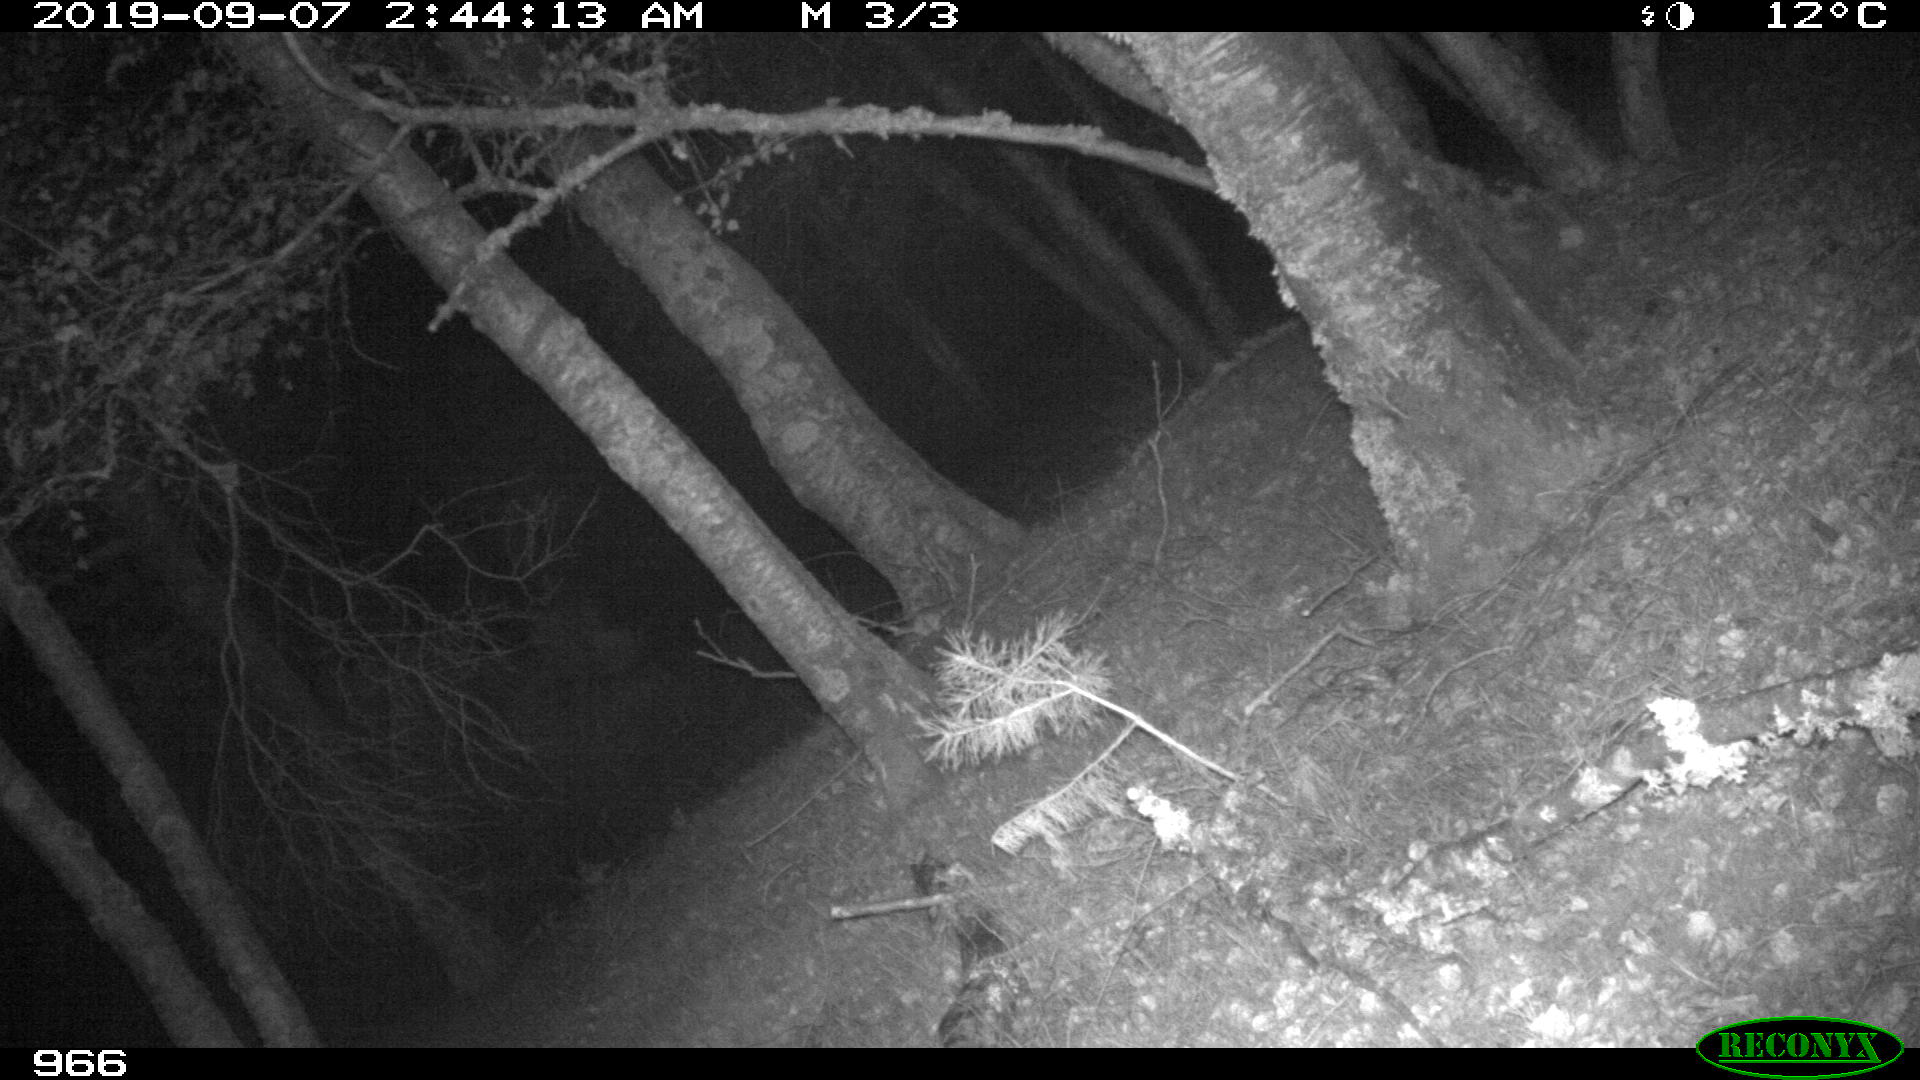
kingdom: Animalia
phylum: Chordata
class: Mammalia
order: Artiodactyla
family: Cervidae
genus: Capreolus
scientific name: Capreolus capreolus
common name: Western roe deer
